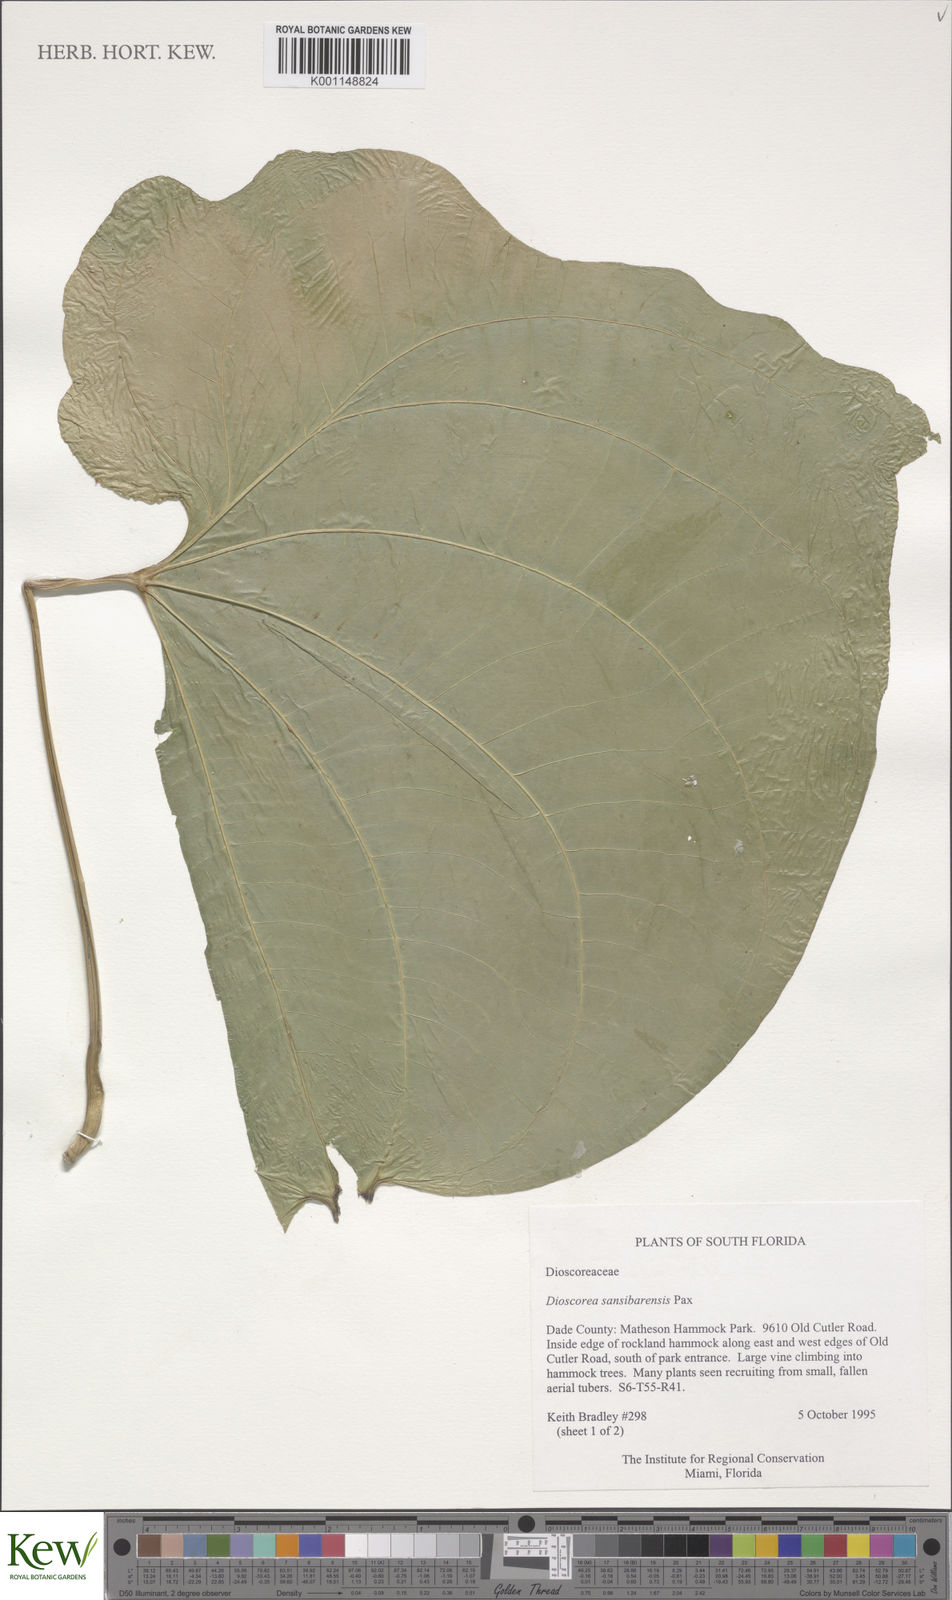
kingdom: Plantae
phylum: Tracheophyta
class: Liliopsida
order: Dioscoreales
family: Dioscoreaceae
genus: Dioscorea
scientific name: Dioscorea sansibarensis
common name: Zanzibar yam
